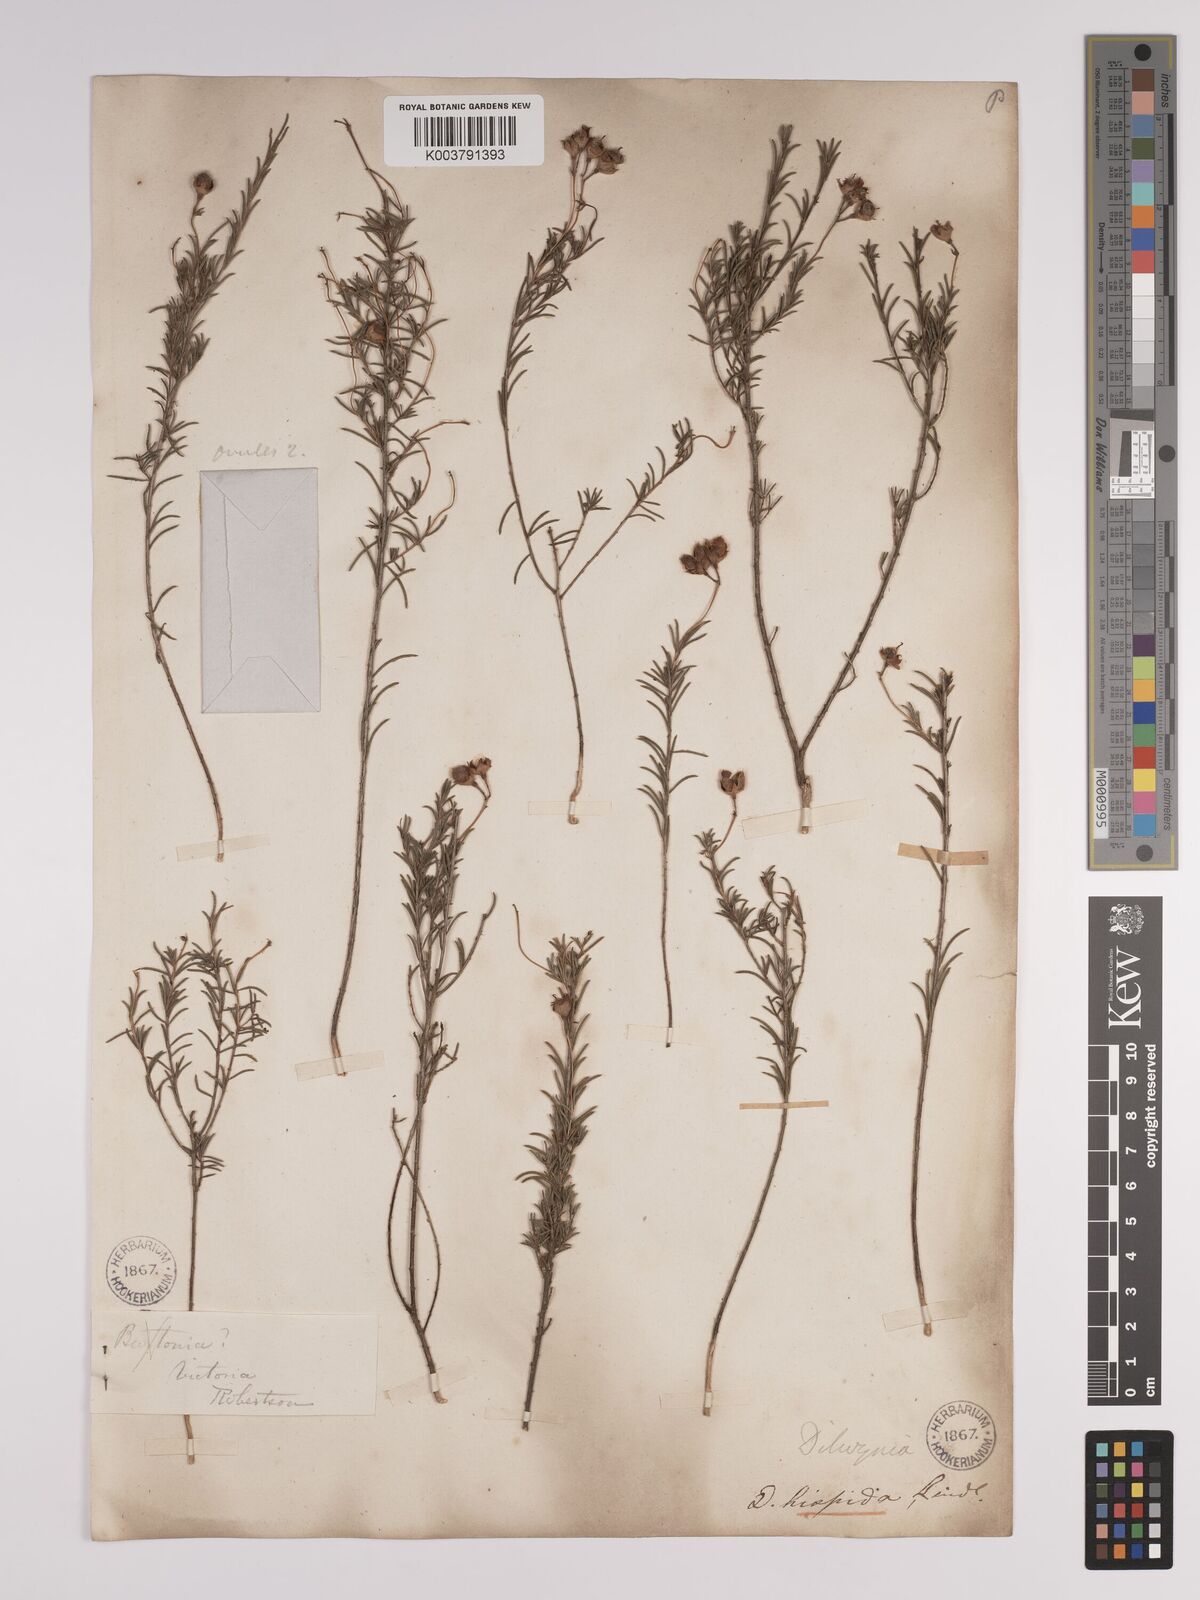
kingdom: Plantae
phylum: Tracheophyta
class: Magnoliopsida
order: Fabales
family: Fabaceae
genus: Dillwynia
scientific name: Dillwynia hispida
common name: Red parrot-pea
